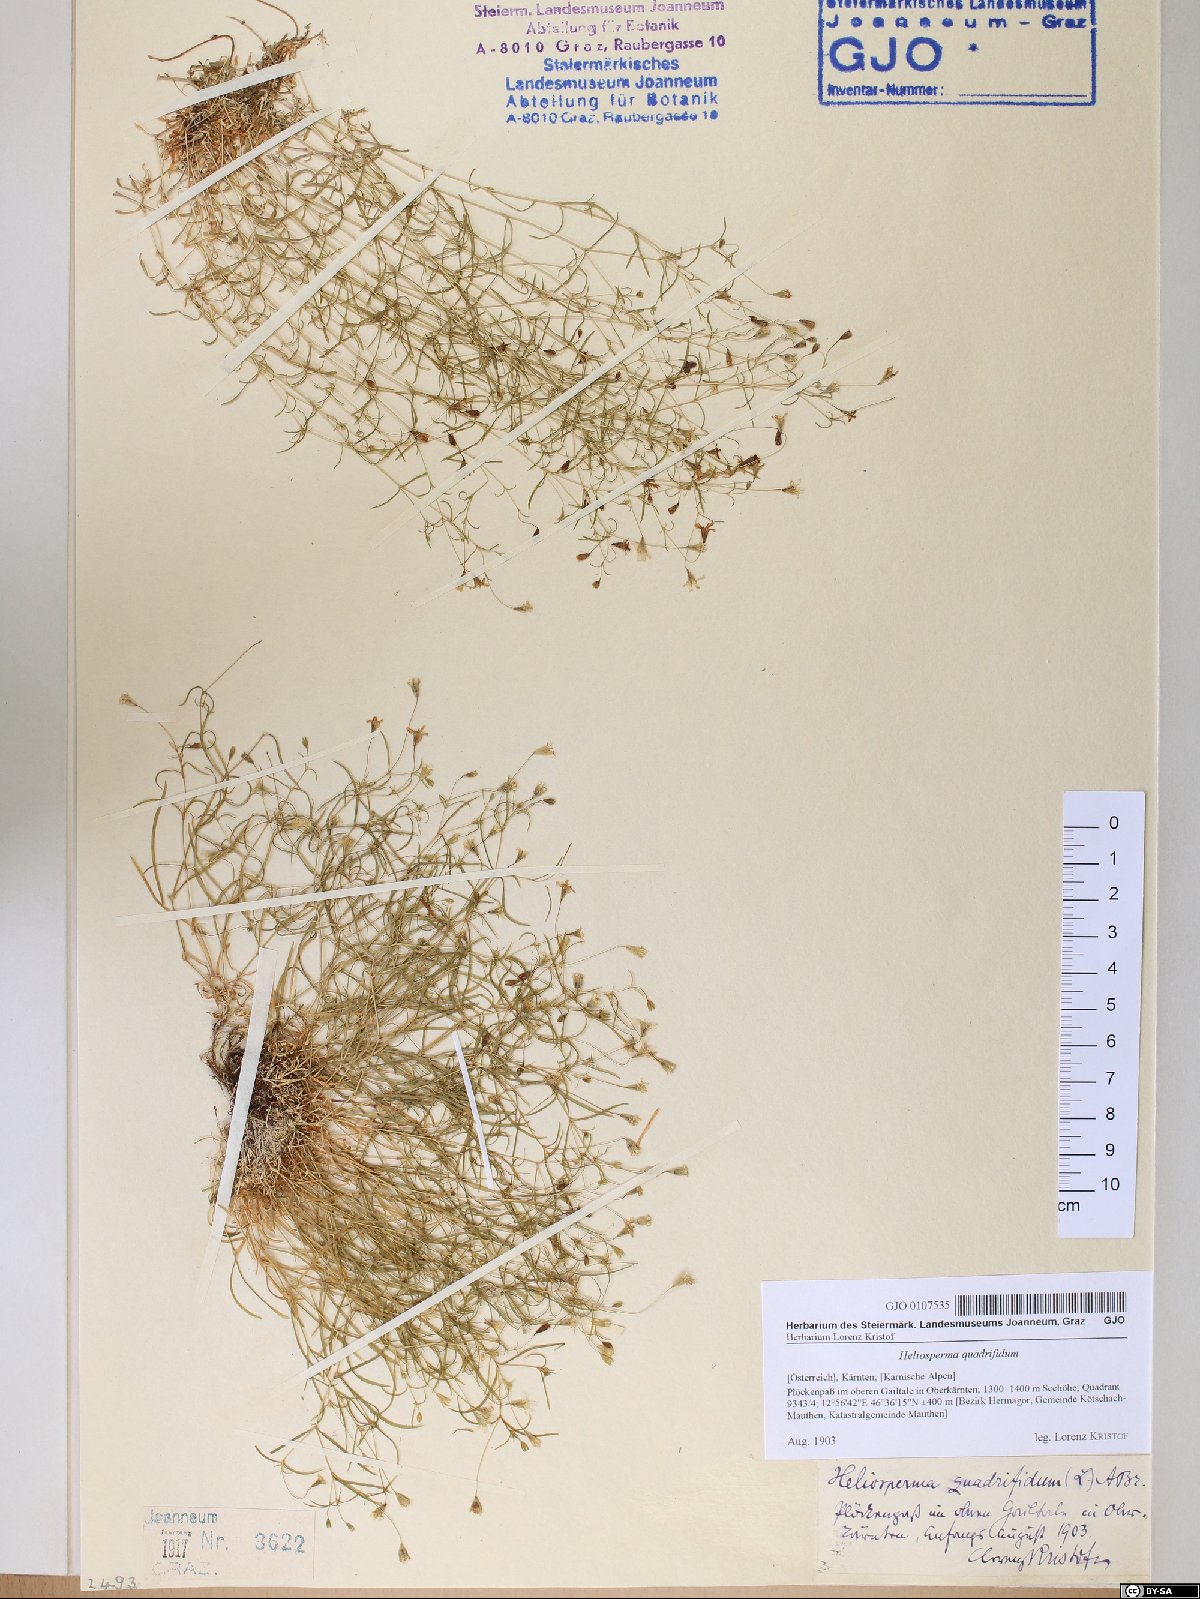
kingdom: Plantae
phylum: Tracheophyta
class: Magnoliopsida
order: Caryophyllales
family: Caryophyllaceae
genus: Heliosperma
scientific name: Heliosperma alpestre
